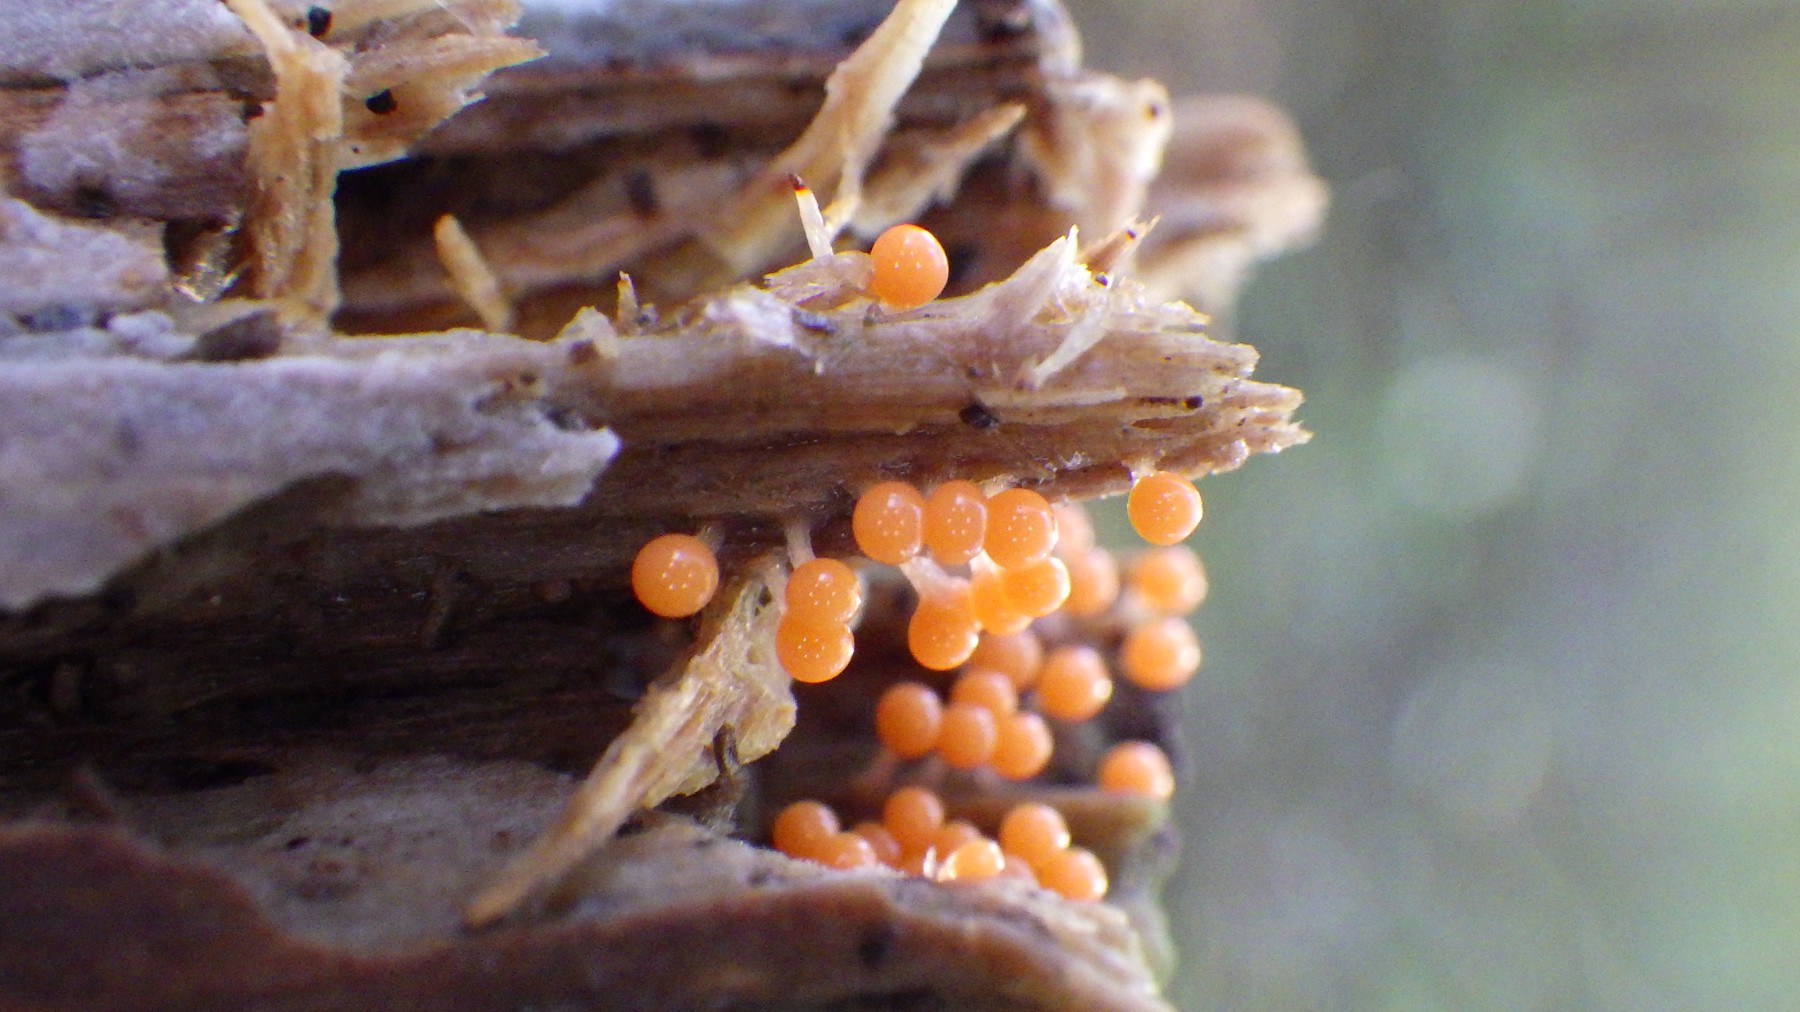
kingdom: Protozoa
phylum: Mycetozoa
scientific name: Mycetozoa
